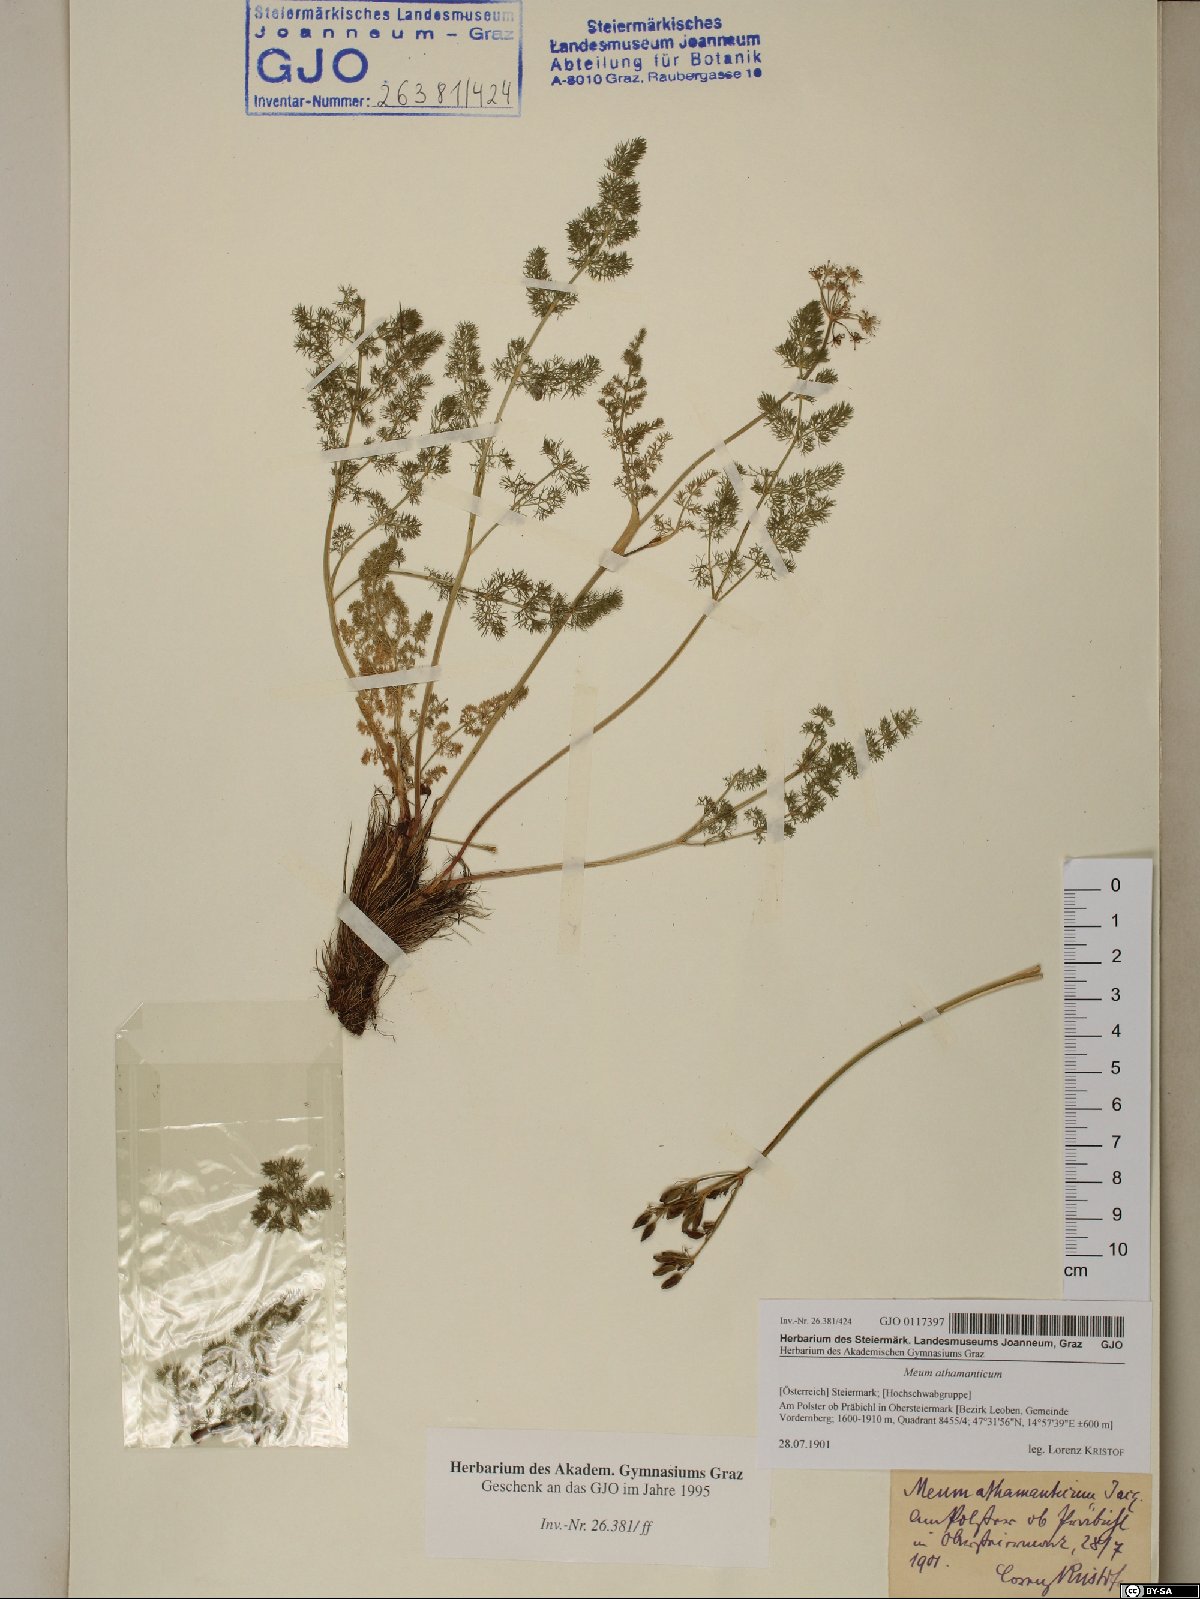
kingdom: Plantae
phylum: Tracheophyta
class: Magnoliopsida
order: Apiales
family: Apiaceae
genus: Meum
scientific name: Meum athamanticum
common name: Spignel
